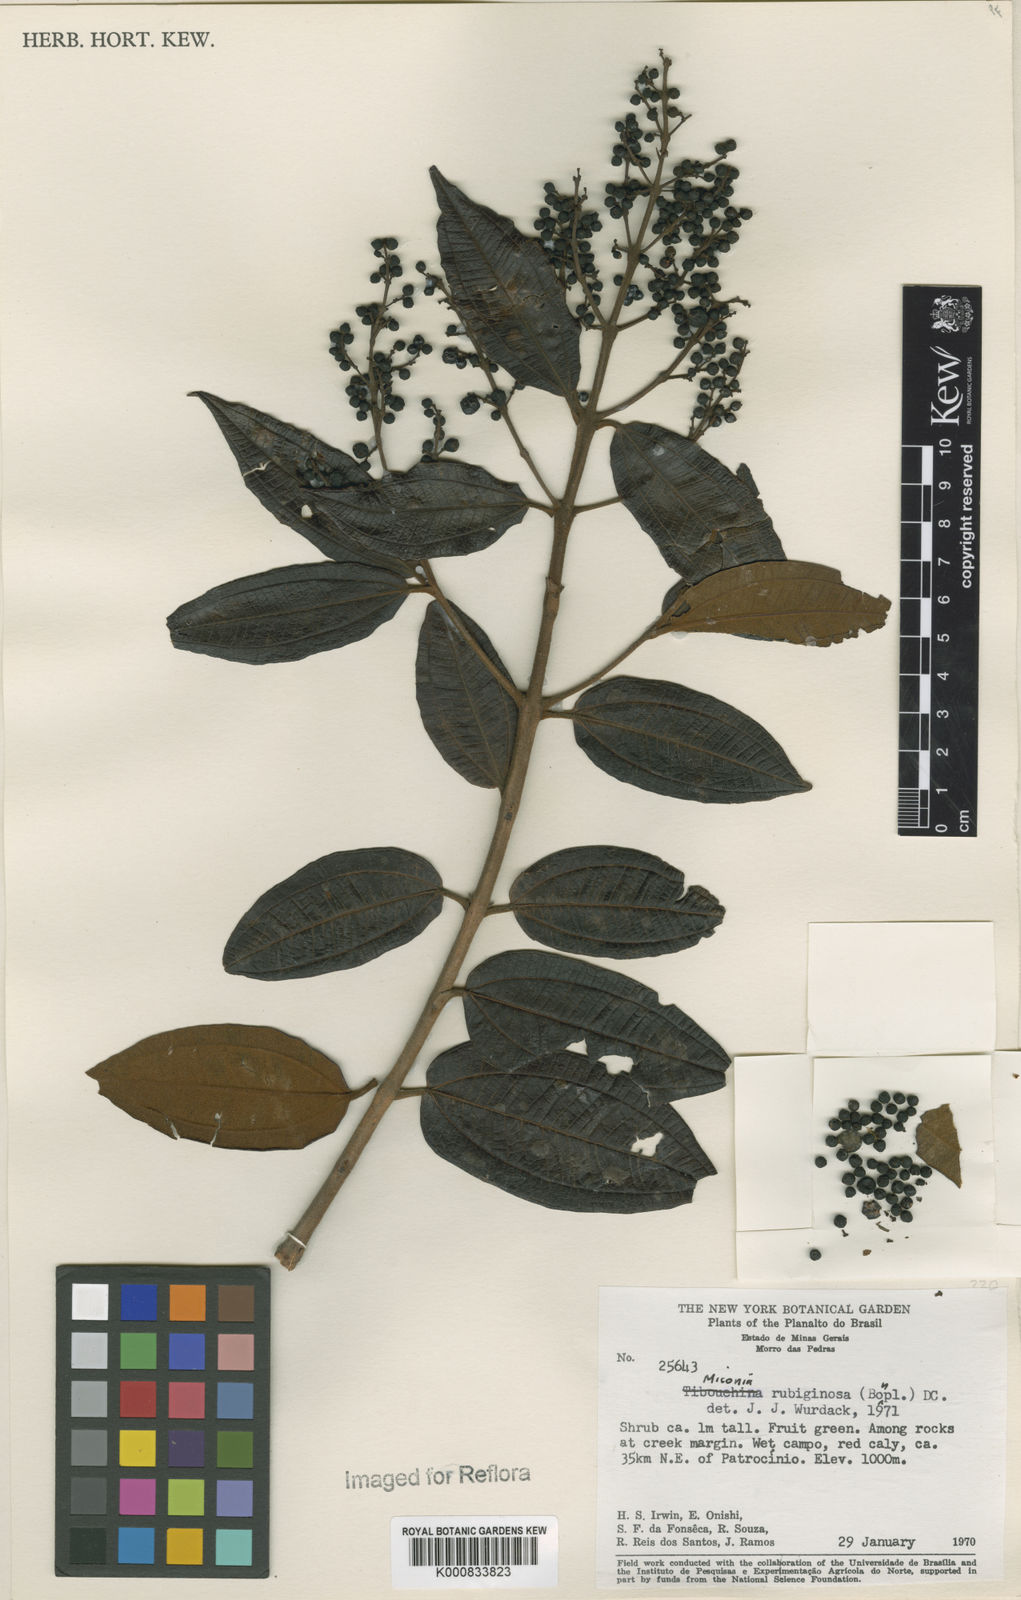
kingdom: Plantae
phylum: Tracheophyta
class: Magnoliopsida
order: Myrtales
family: Melastomataceae
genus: Miconia
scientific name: Miconia rubiginosa
